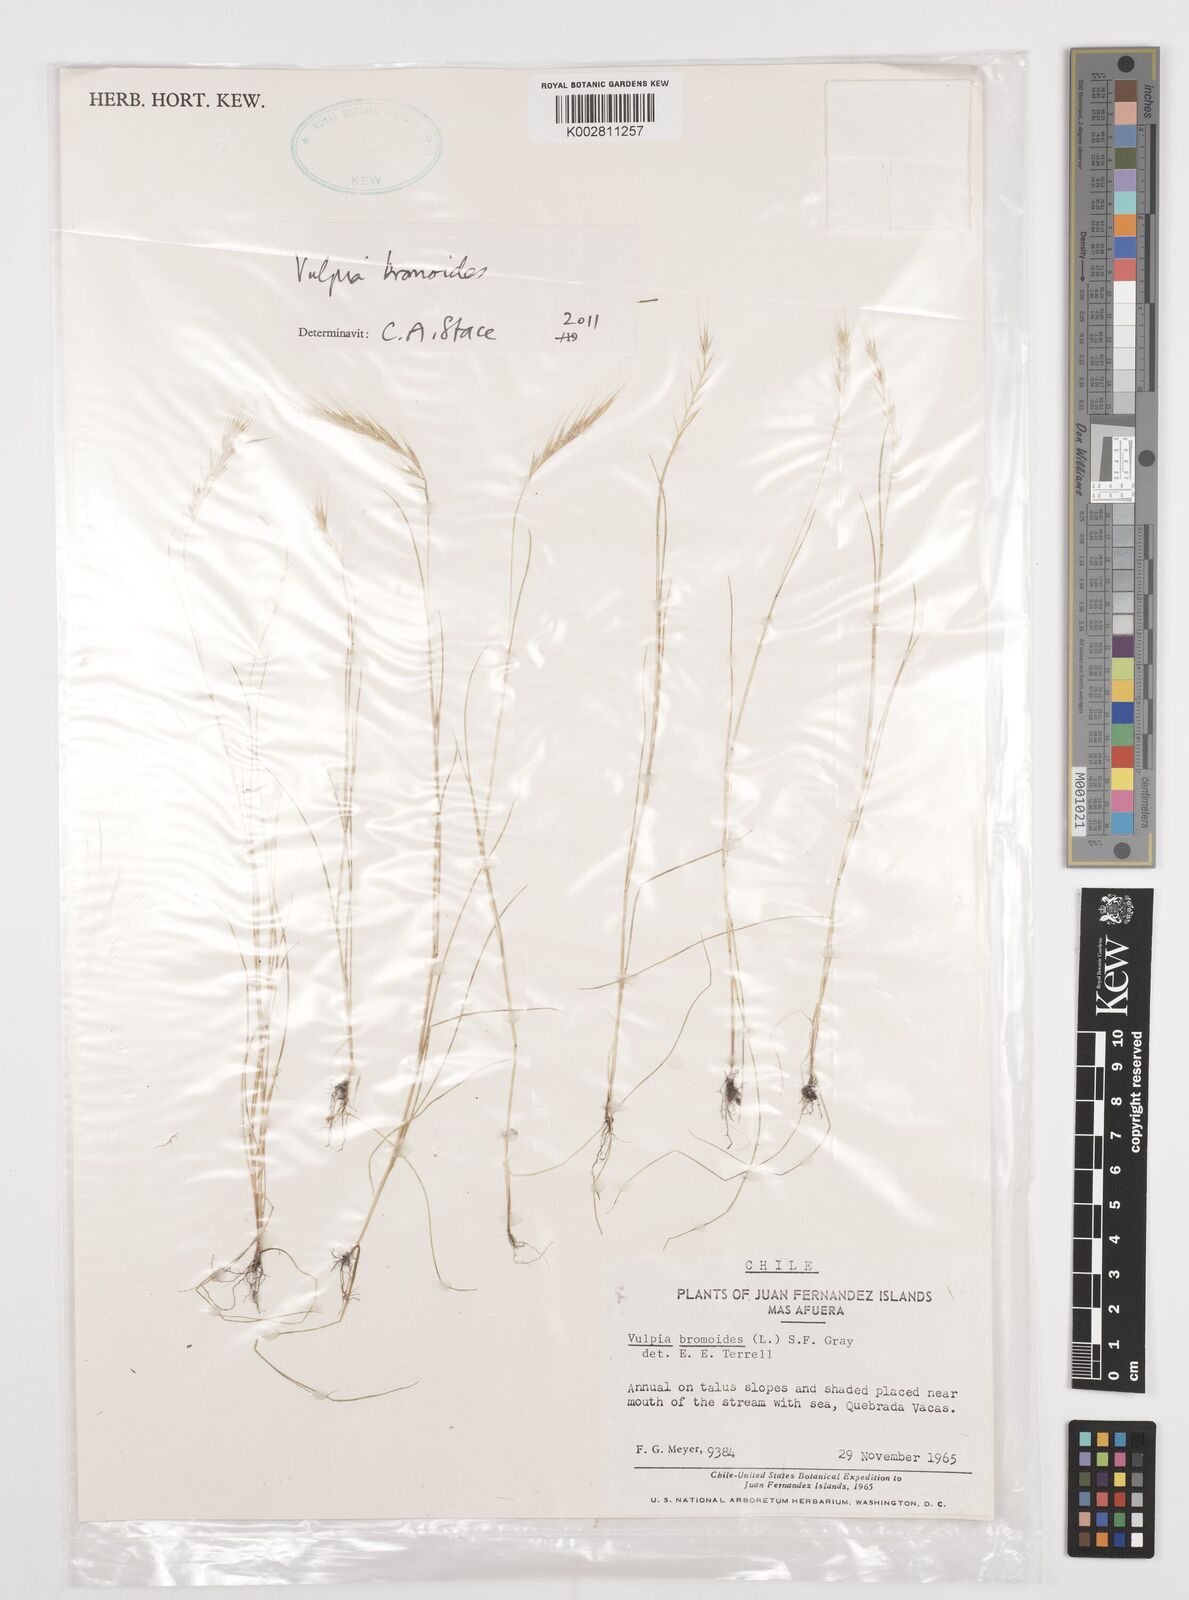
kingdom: Plantae
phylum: Tracheophyta
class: Liliopsida
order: Poales
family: Poaceae
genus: Festuca
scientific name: Festuca bromoides
